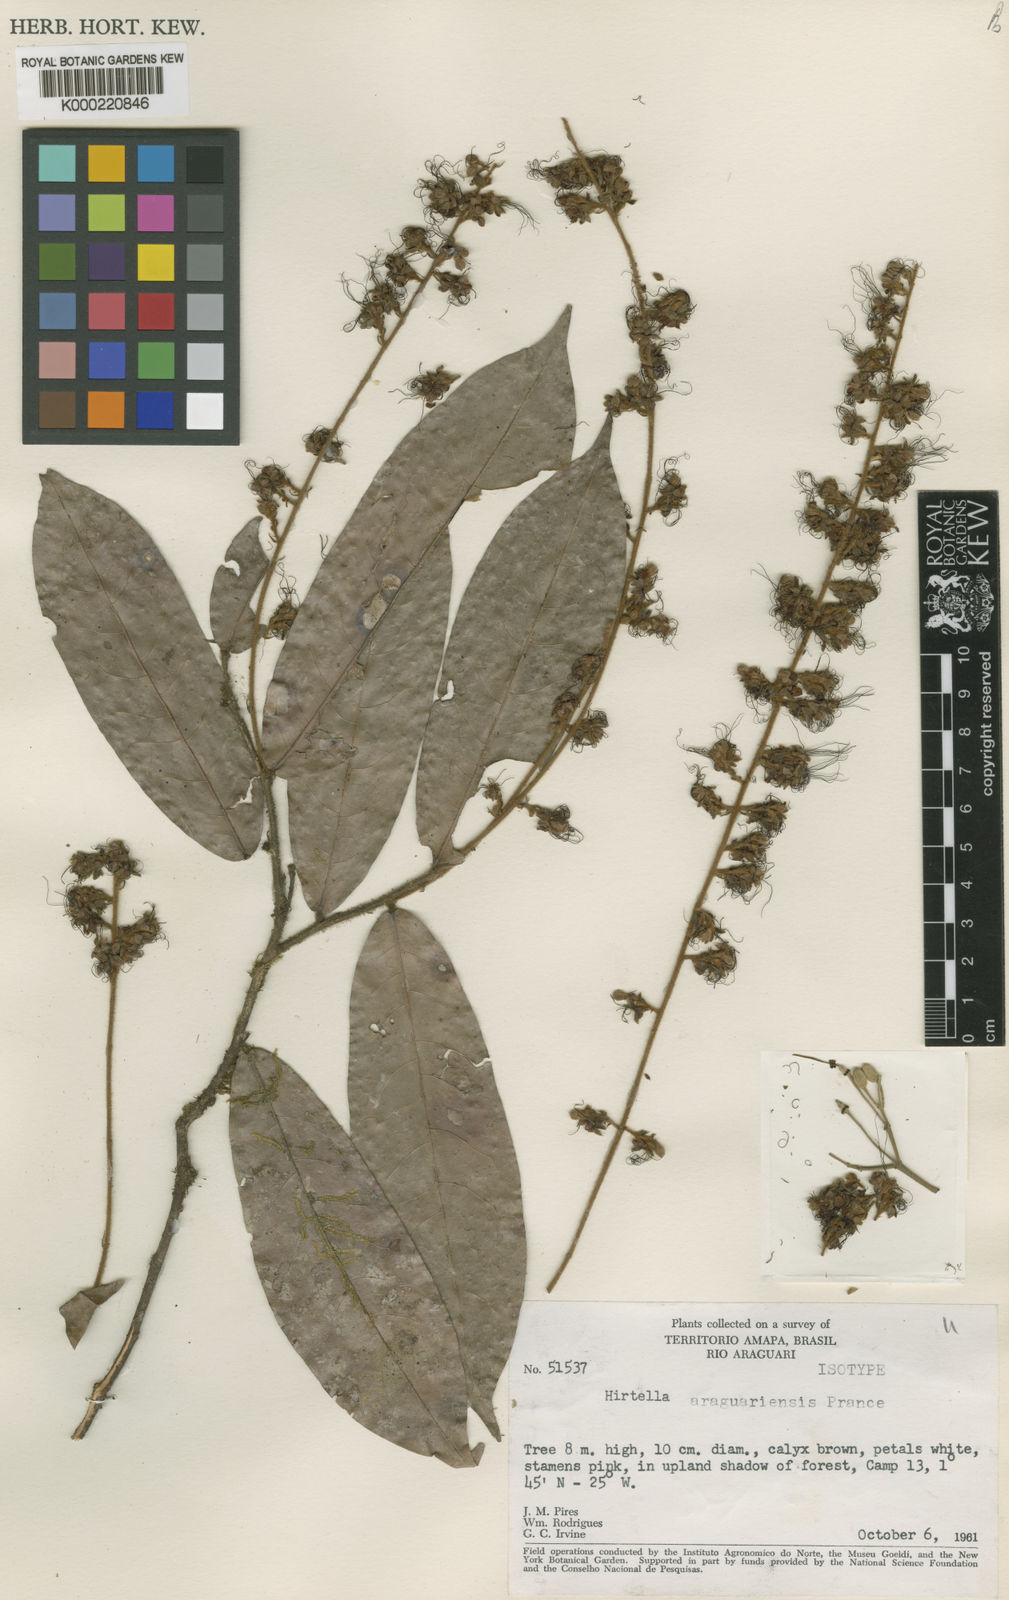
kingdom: Plantae
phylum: Tracheophyta
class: Magnoliopsida
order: Malpighiales
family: Chrysobalanaceae
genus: Hirtella
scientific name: Hirtella araguariensis
